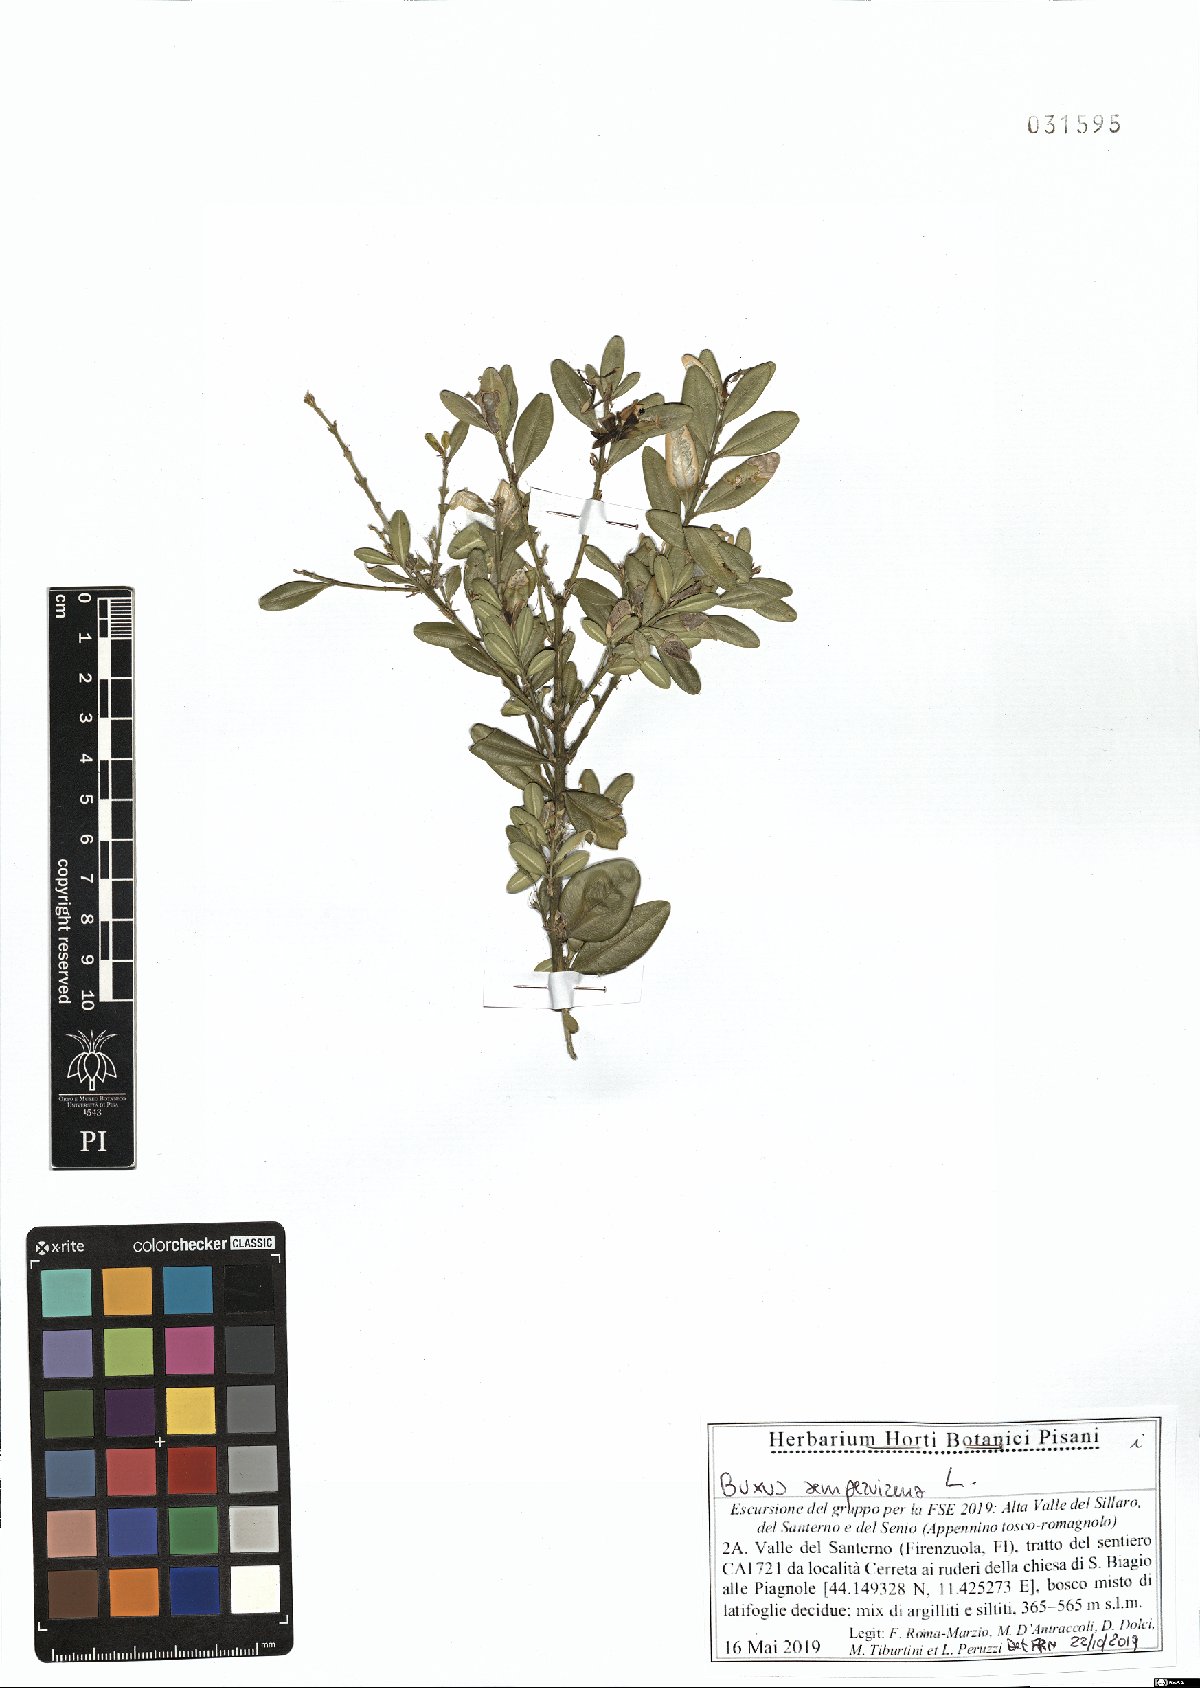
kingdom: Plantae
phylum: Tracheophyta
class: Magnoliopsida
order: Buxales
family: Buxaceae
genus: Buxus
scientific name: Buxus sempervirens
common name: Box
